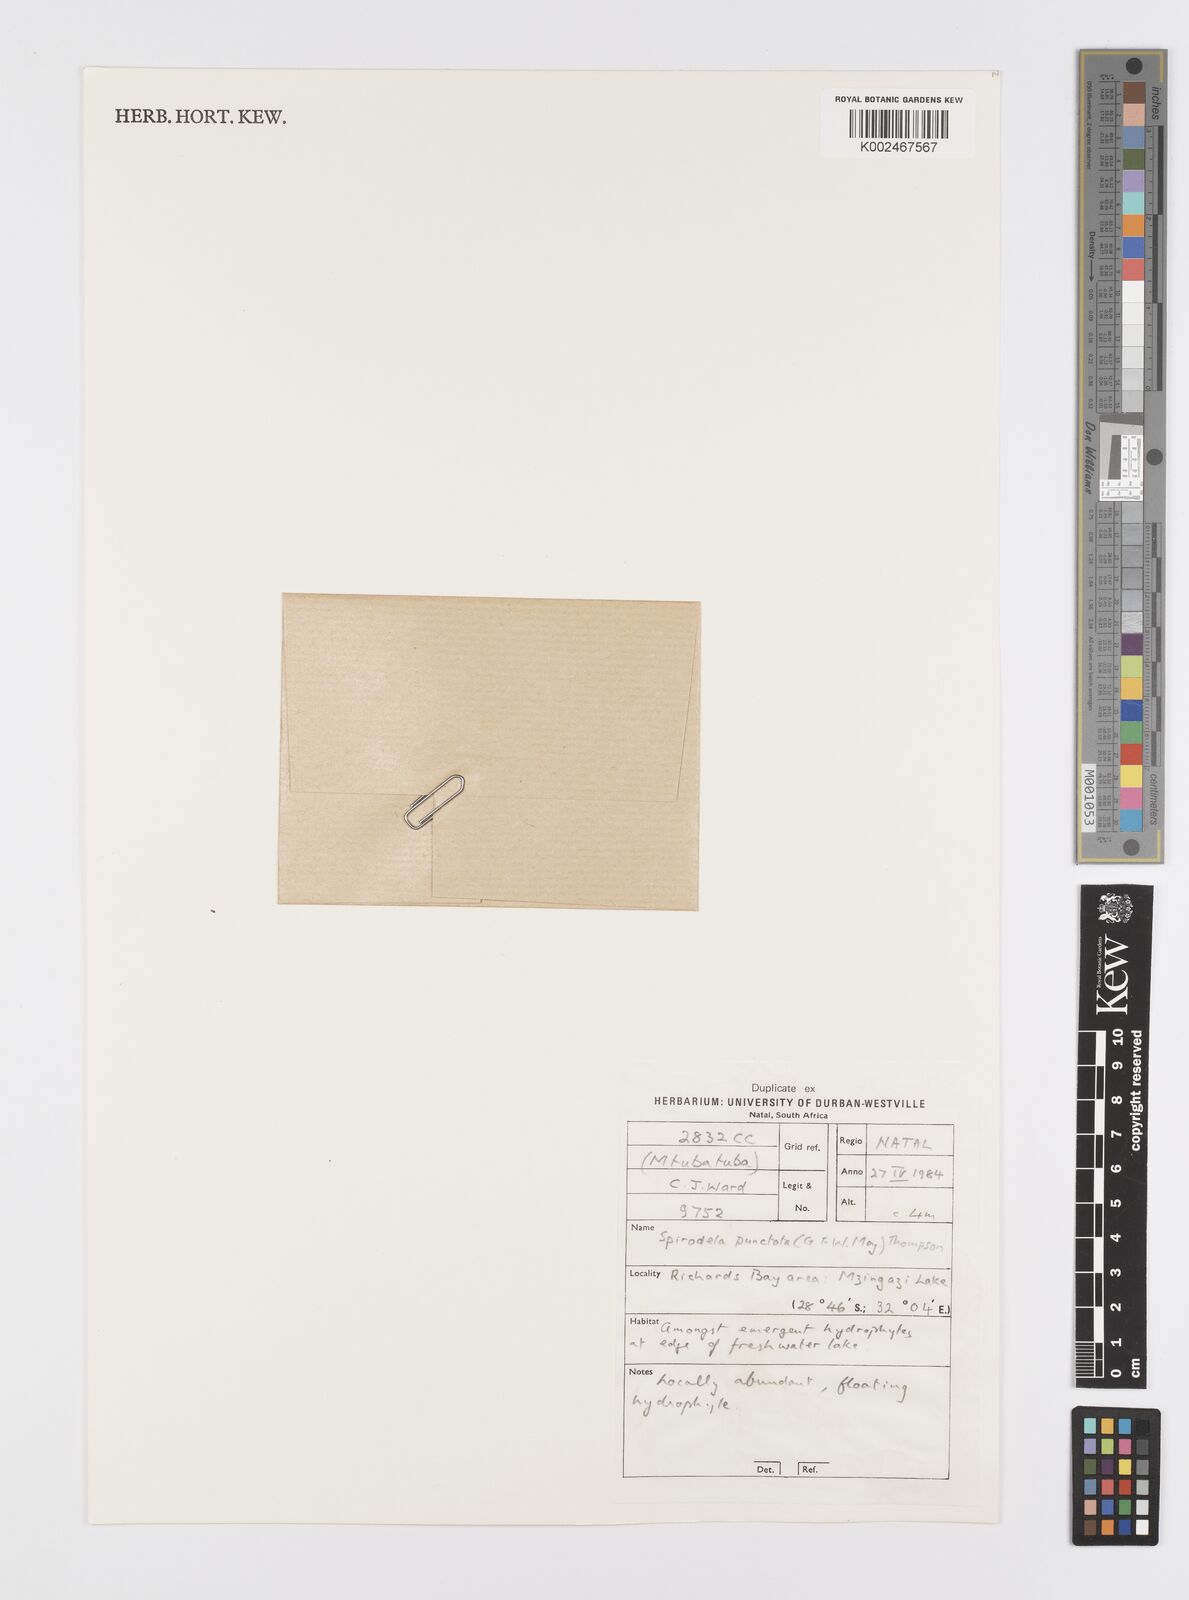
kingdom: Plantae
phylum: Tracheophyta
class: Liliopsida
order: Alismatales
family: Araceae
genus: Spirodela
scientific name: Spirodela punctata
